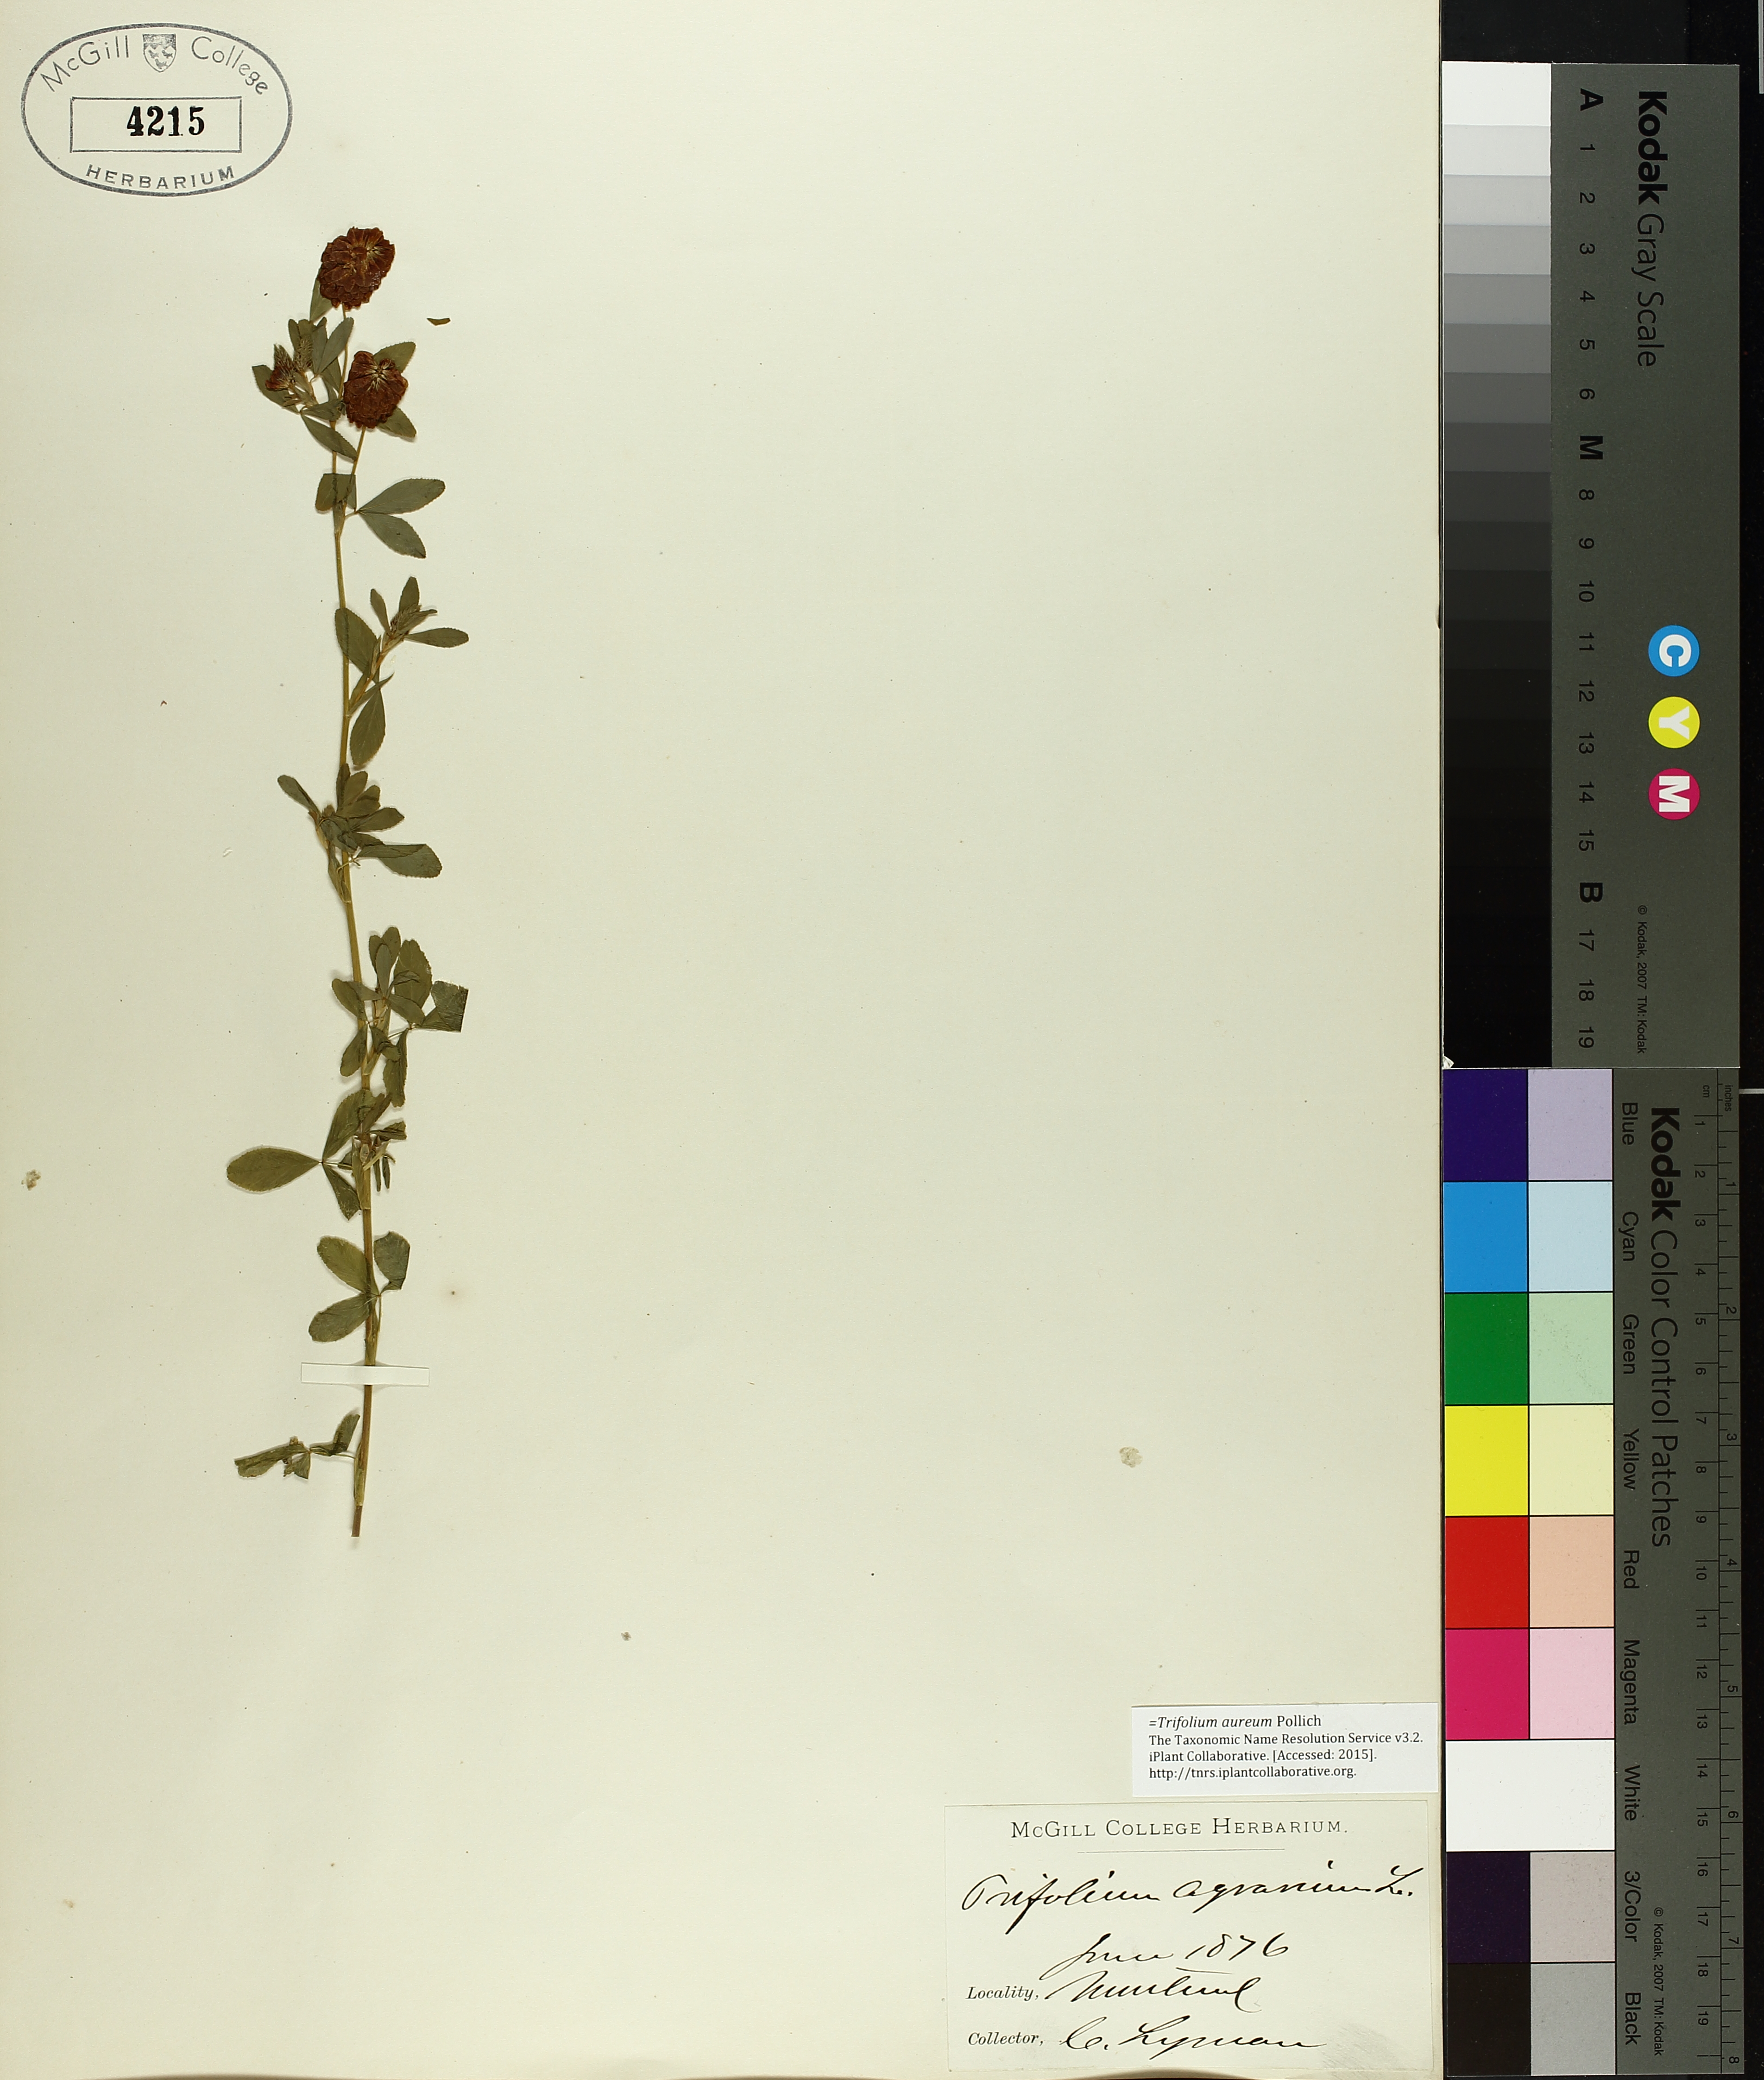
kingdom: Plantae
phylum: Tracheophyta
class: Magnoliopsida
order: Boraginales
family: Hydrophyllaceae
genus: Hydrophyllum
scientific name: Hydrophyllum virginianum
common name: Virginia waterleaf
